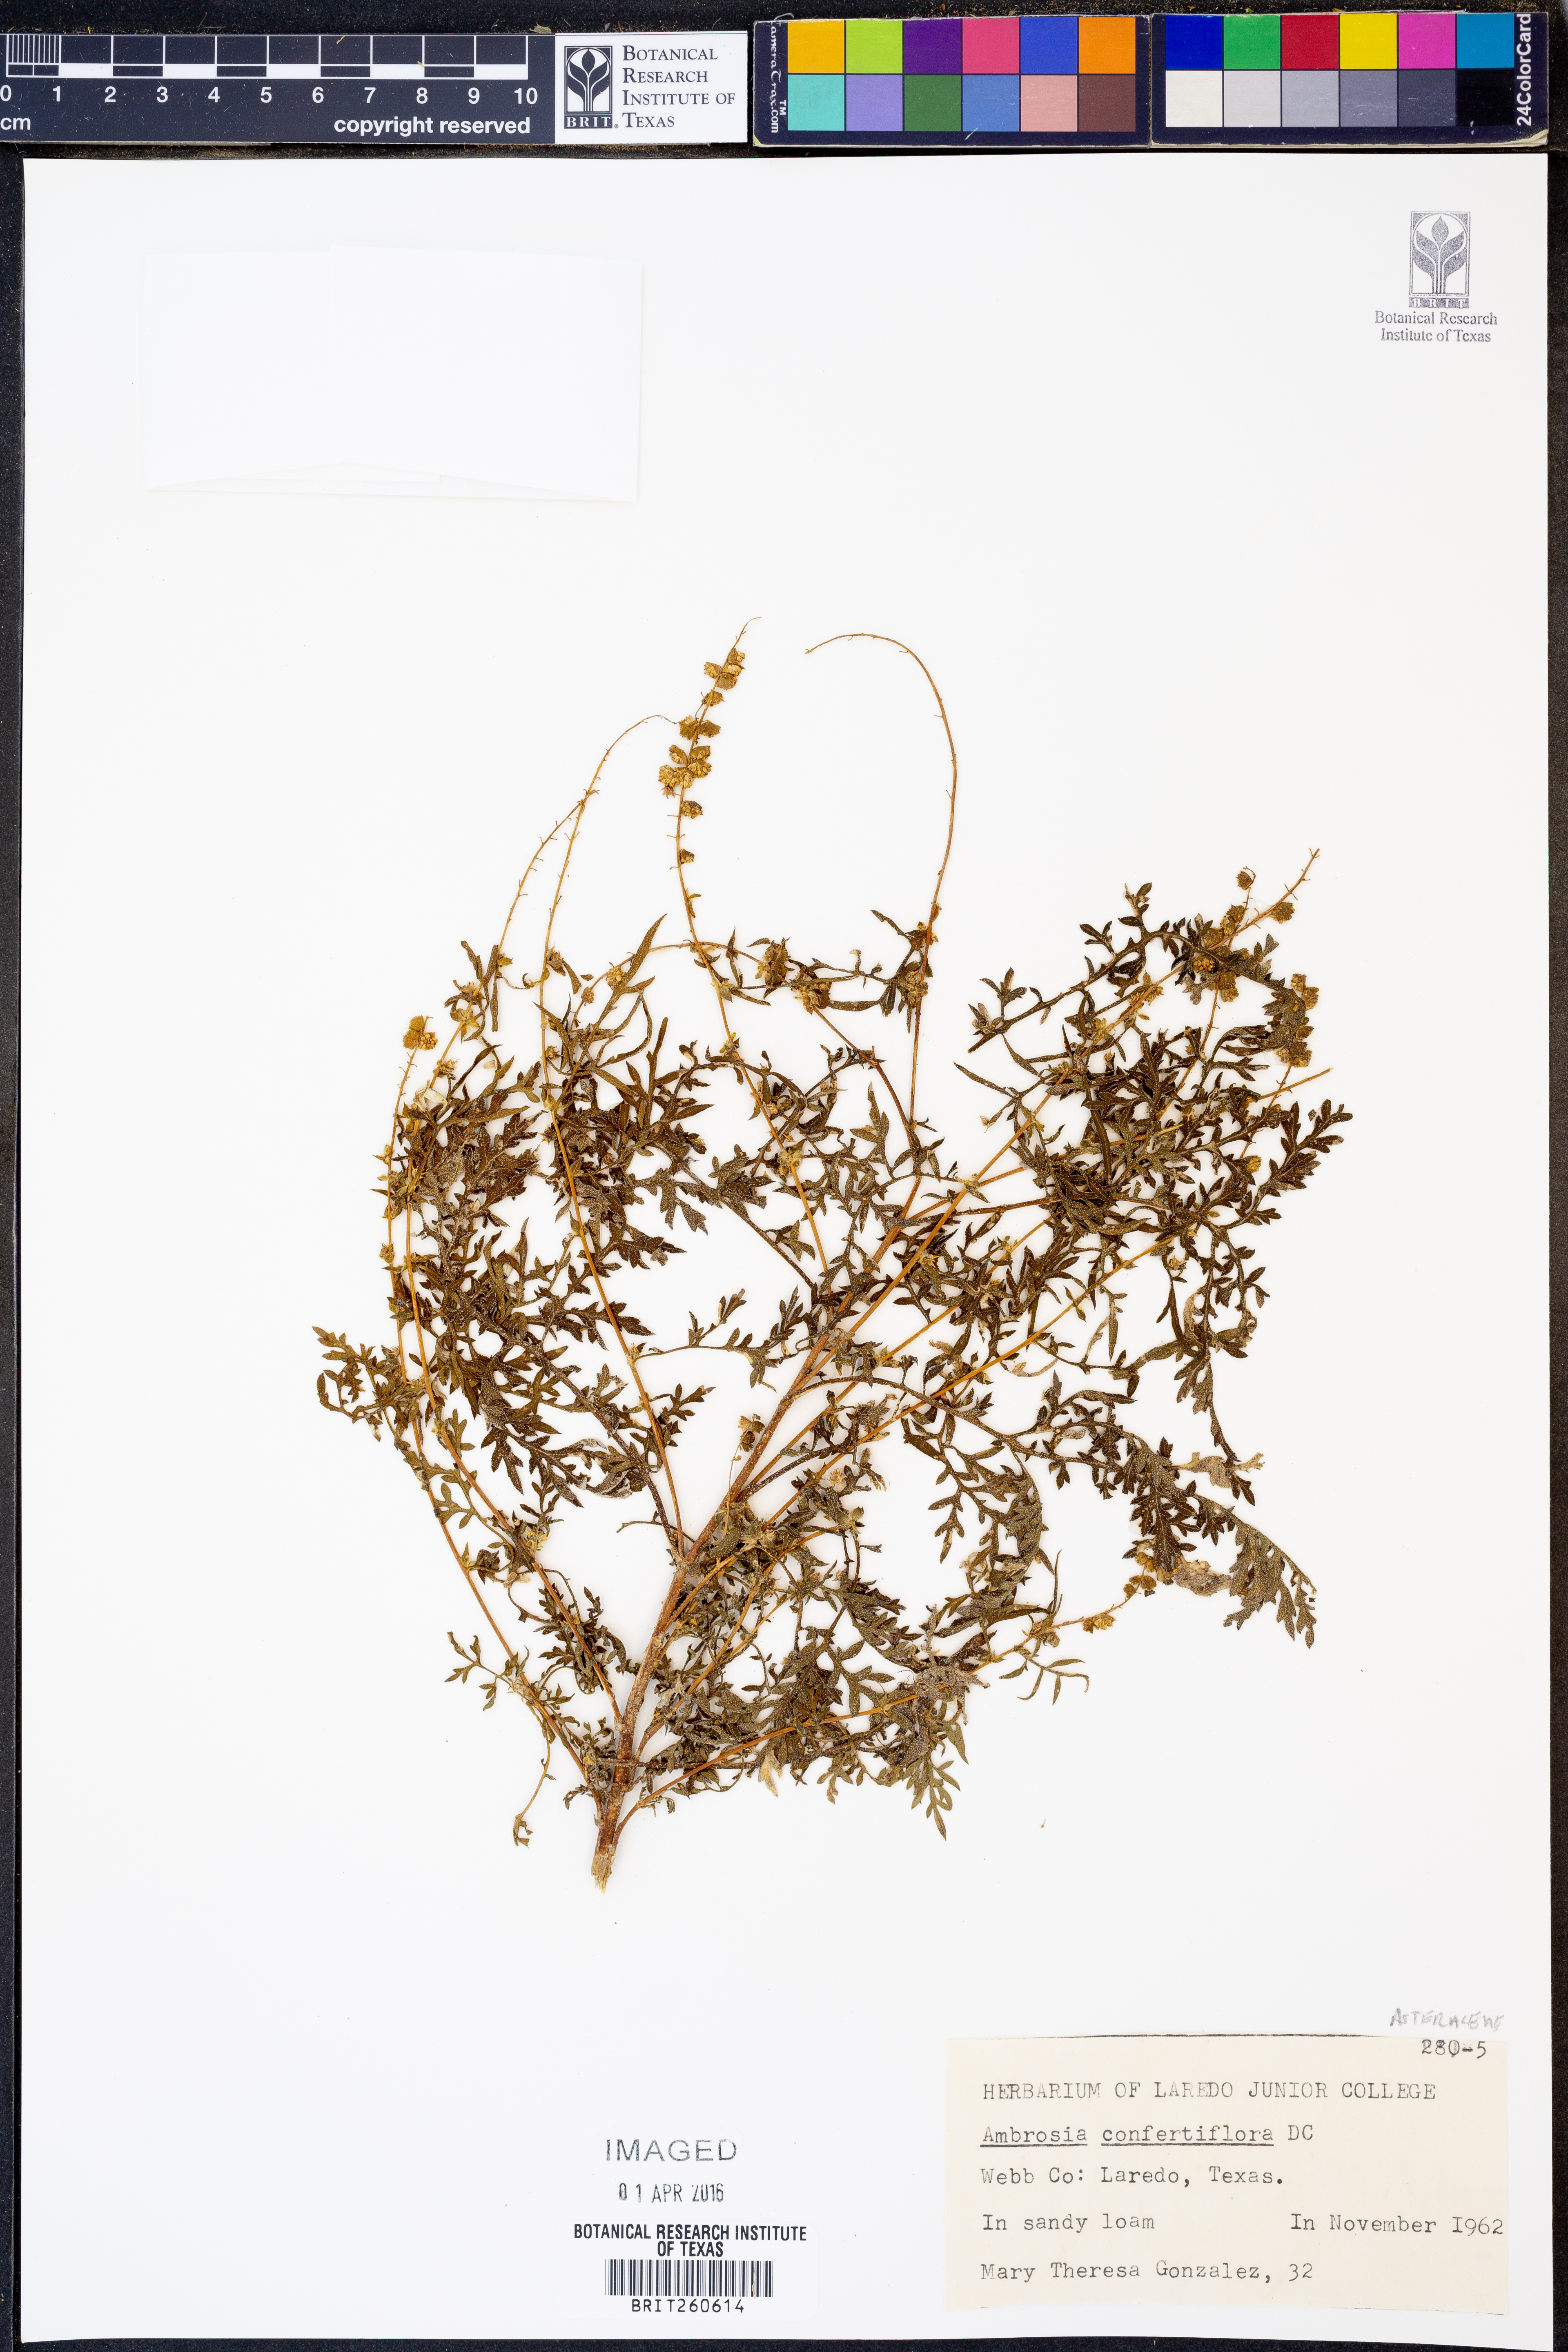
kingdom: Plantae
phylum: Tracheophyta
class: Magnoliopsida
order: Asterales
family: Asteraceae
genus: Ambrosia
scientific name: Ambrosia confertiflora
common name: Bur ragweed
